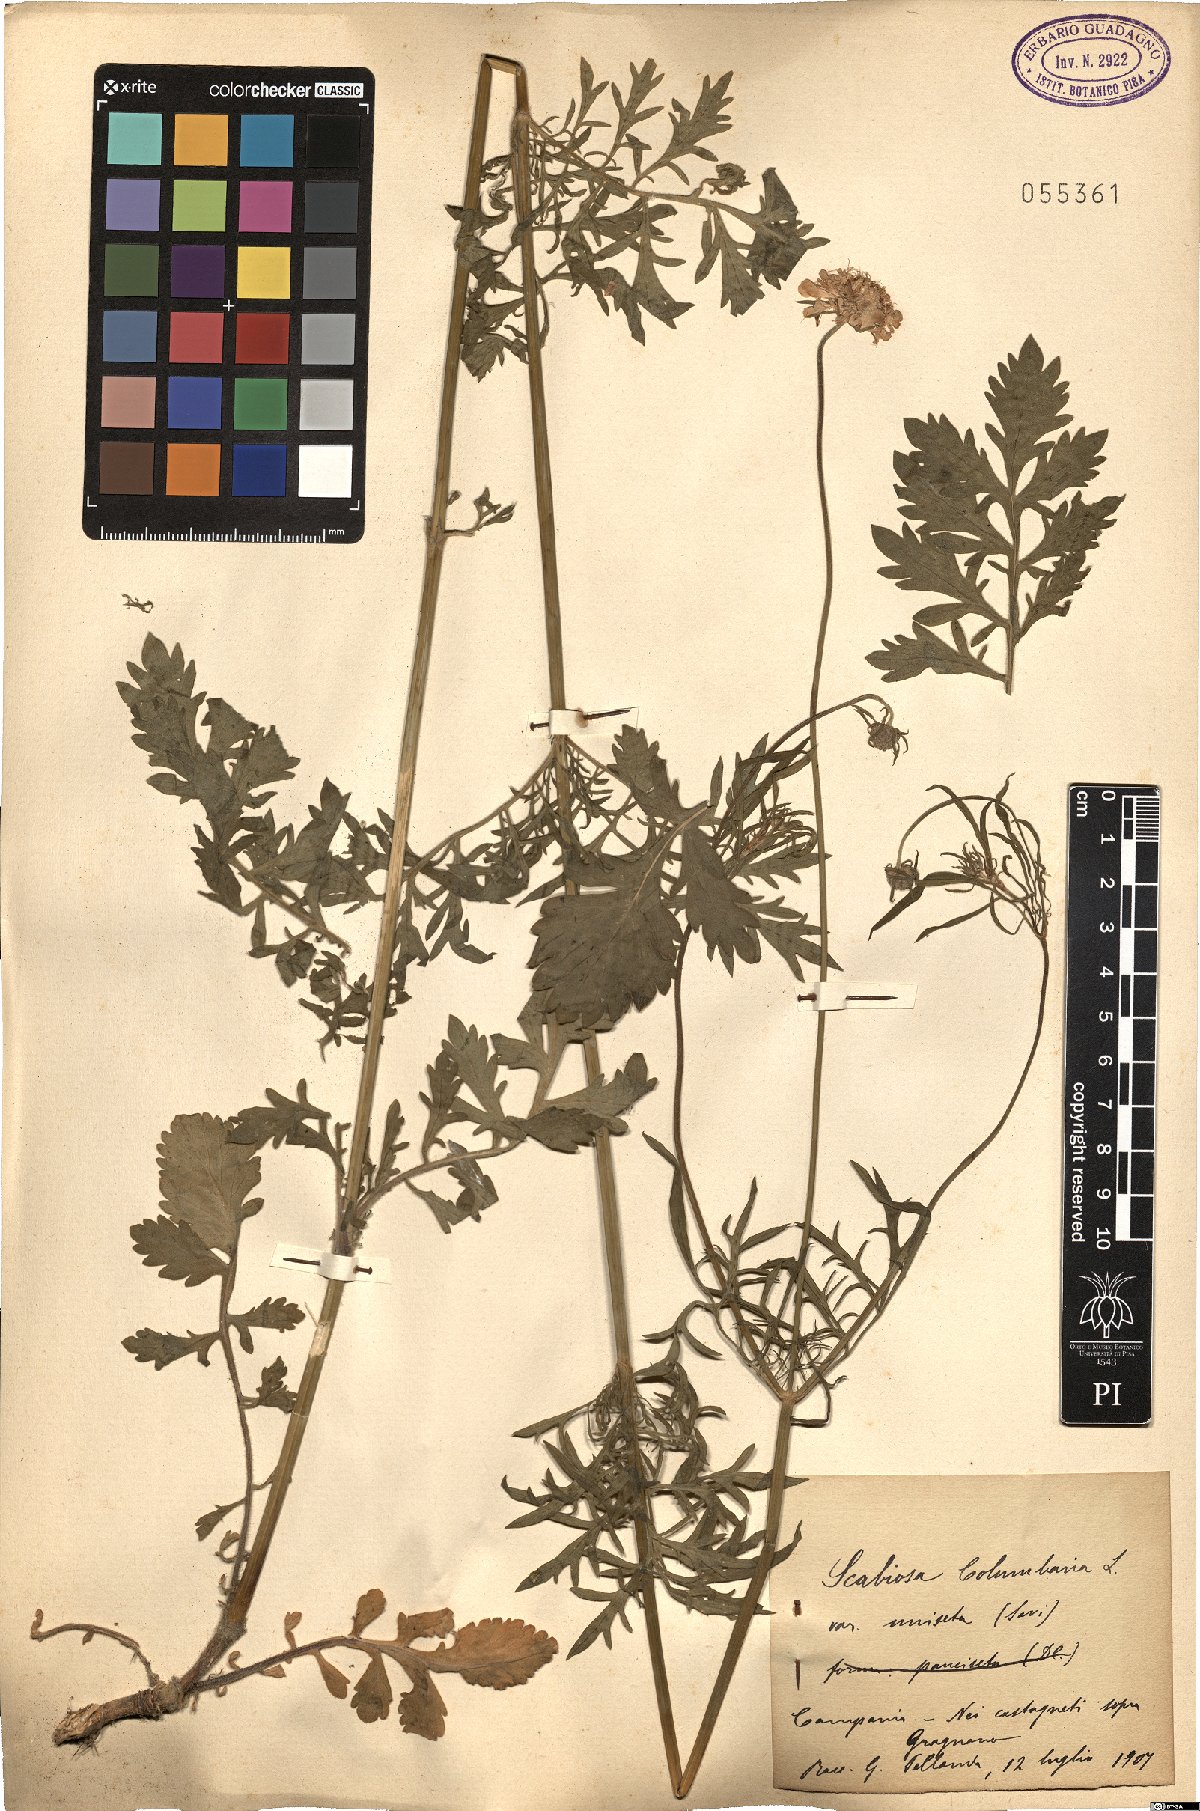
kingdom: Plantae
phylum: Tracheophyta
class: Magnoliopsida
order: Dipsacales
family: Caprifoliaceae
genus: Scabiosa
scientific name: Scabiosa columbaria
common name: Small scabious
